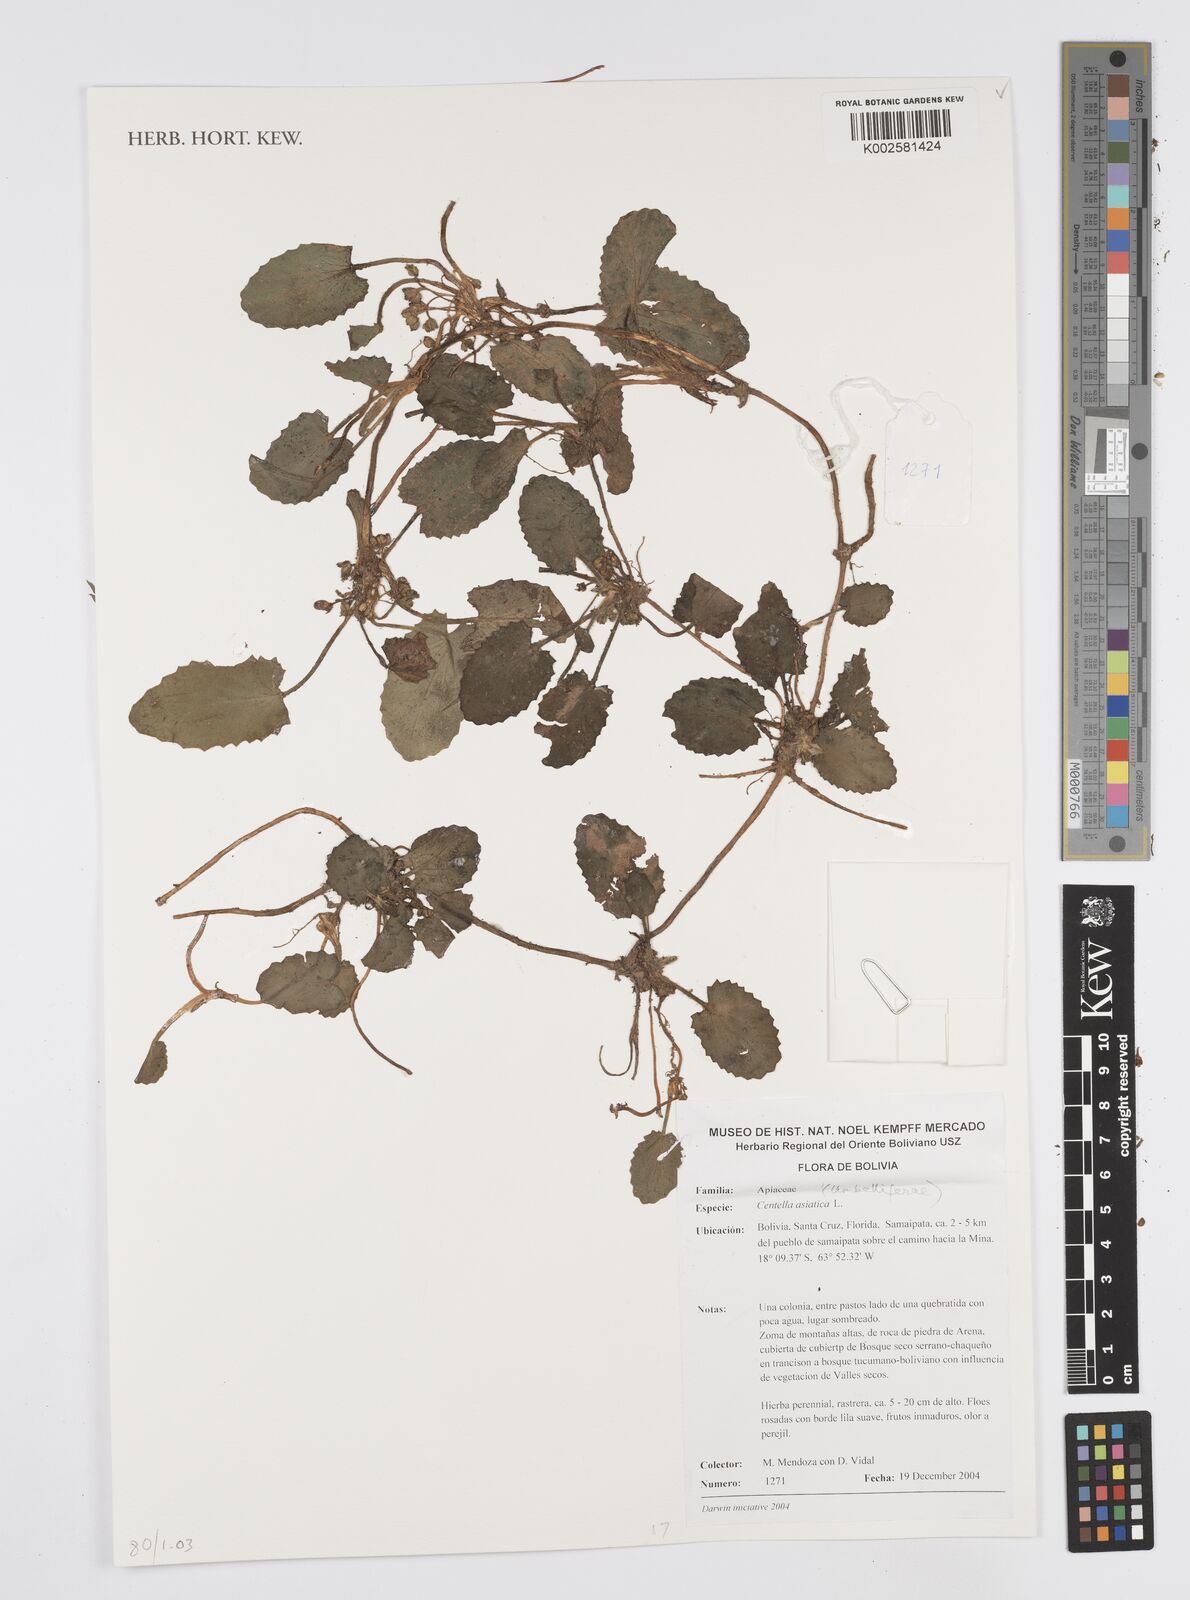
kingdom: Plantae
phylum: Tracheophyta
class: Magnoliopsida
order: Apiales
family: Apiaceae
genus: Centella
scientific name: Centella asiatica
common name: Spadeleaf
